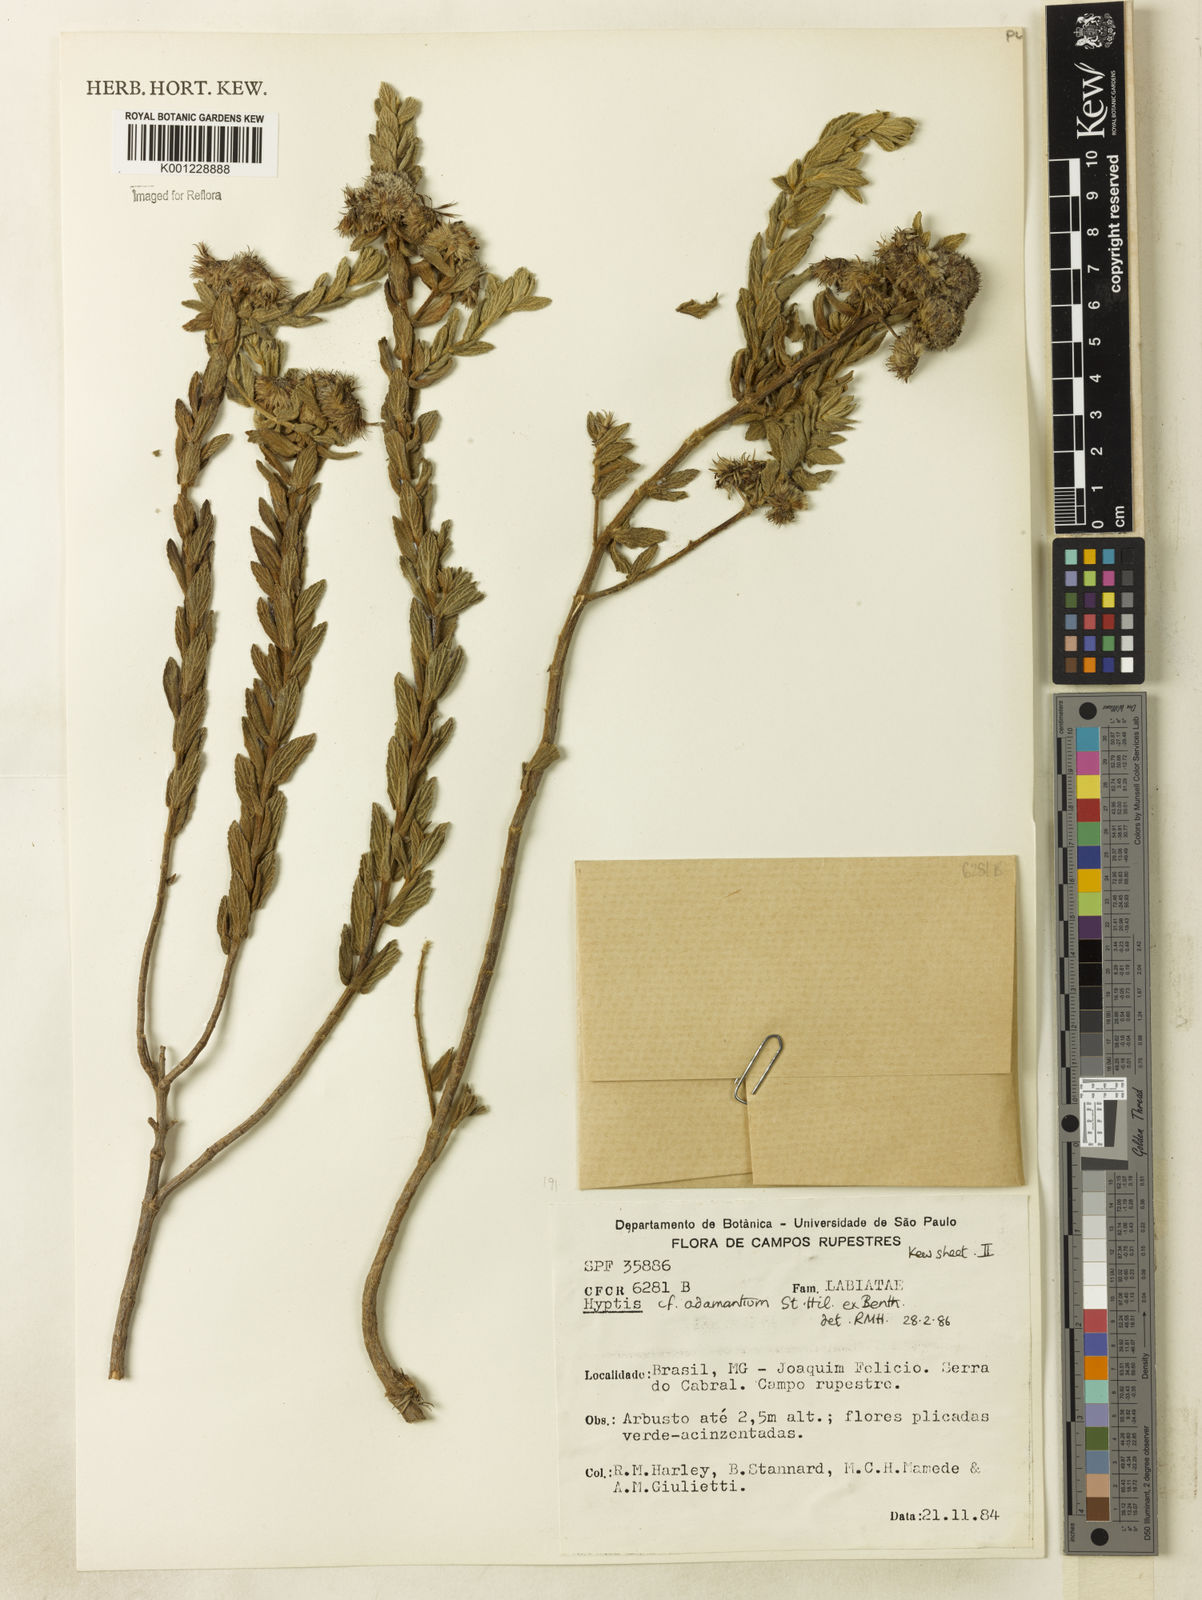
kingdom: Plantae
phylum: Tracheophyta
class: Magnoliopsida
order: Lamiales
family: Lamiaceae
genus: Hyptis
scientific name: Hyptis adamantium
